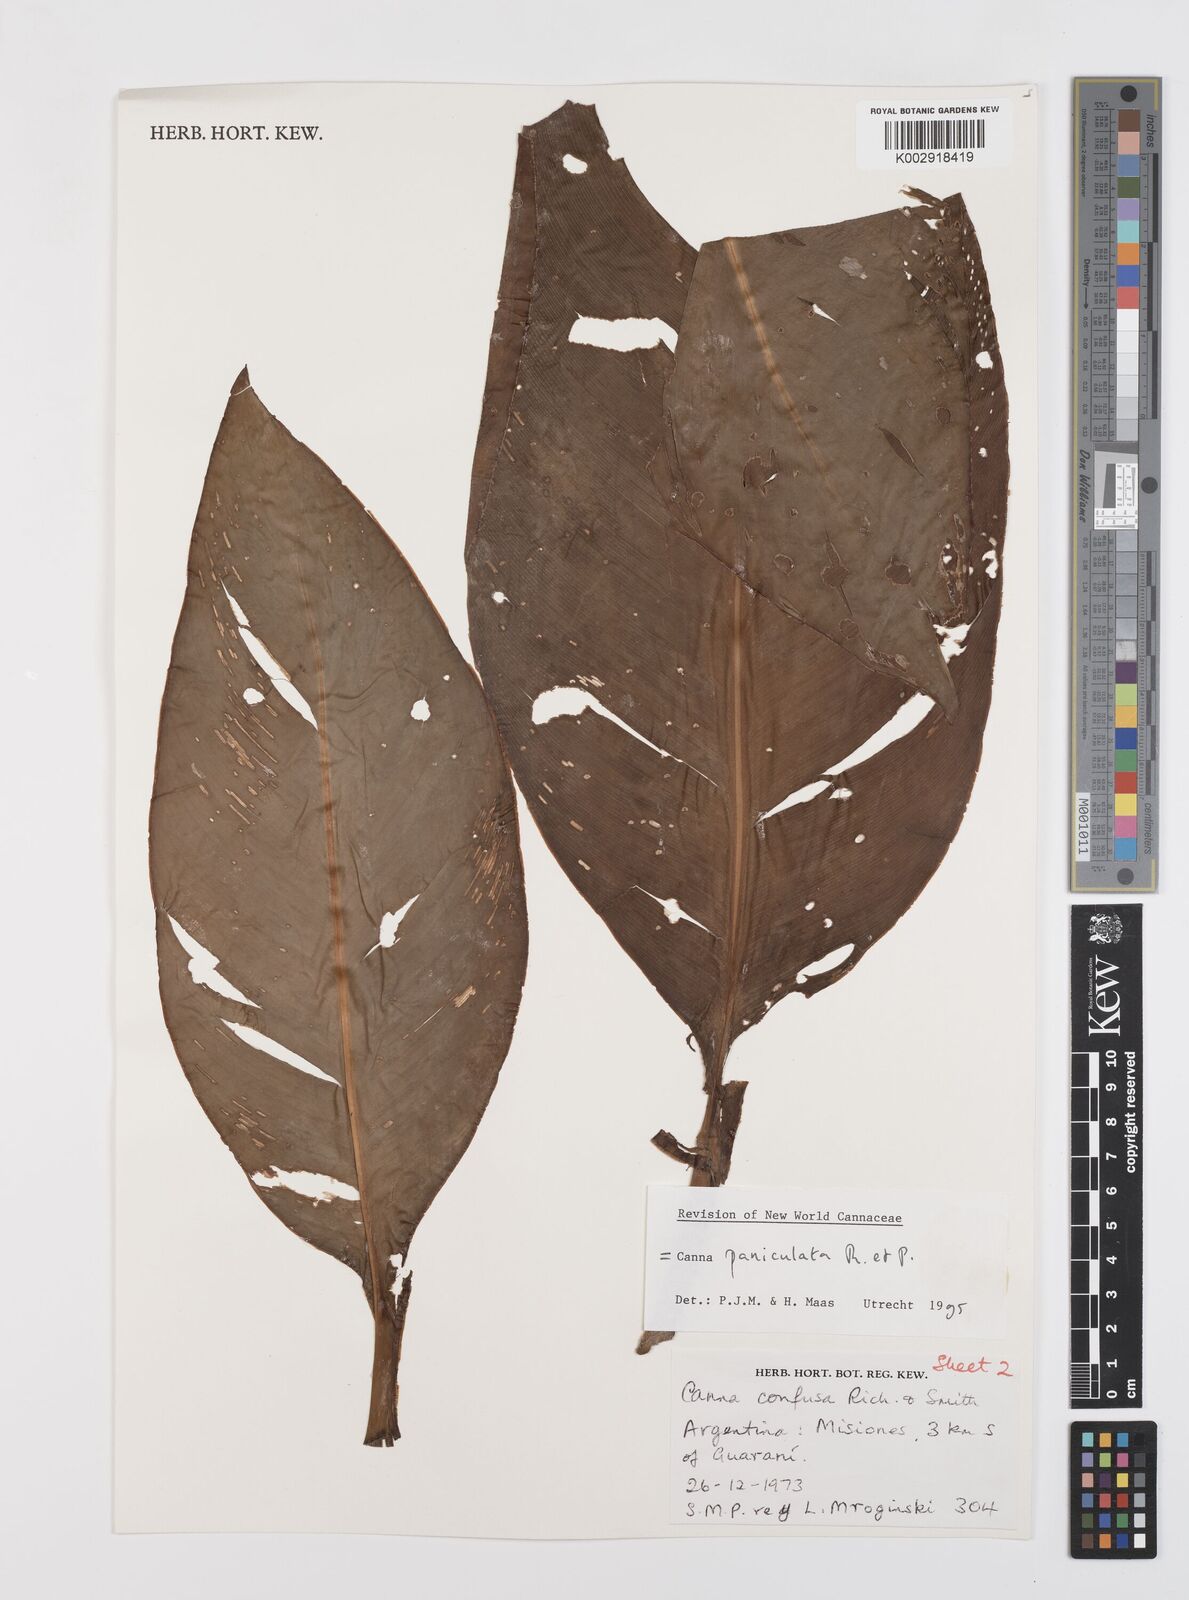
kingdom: Plantae
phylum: Tracheophyta
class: Liliopsida
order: Zingiberales
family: Cannaceae
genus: Canna
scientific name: Canna paniculata
